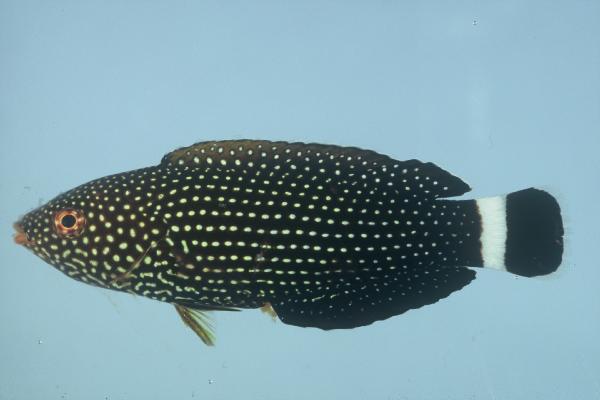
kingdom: Animalia
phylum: Chordata
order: Perciformes
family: Labridae
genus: Anampses
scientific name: Anampses lineatus
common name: Lined wrasse
